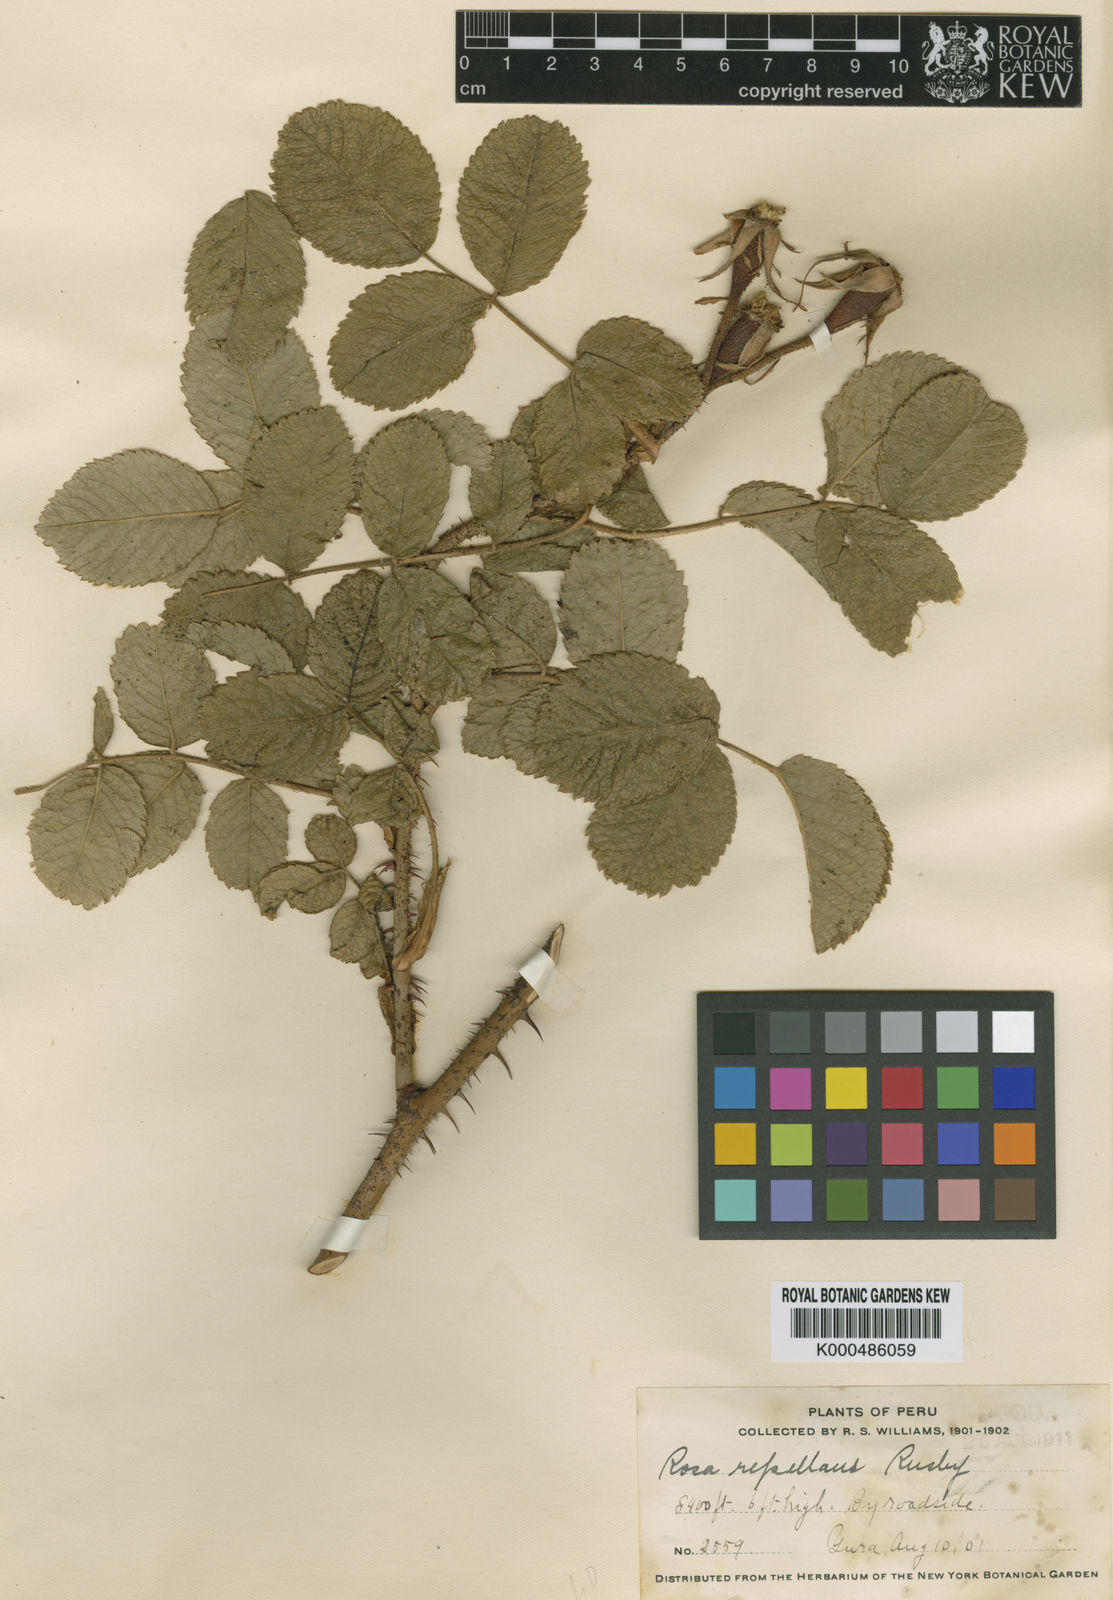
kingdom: Plantae
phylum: Tracheophyta
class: Magnoliopsida
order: Rosales
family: Rosaceae
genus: Rosa
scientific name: Rosa repellens
